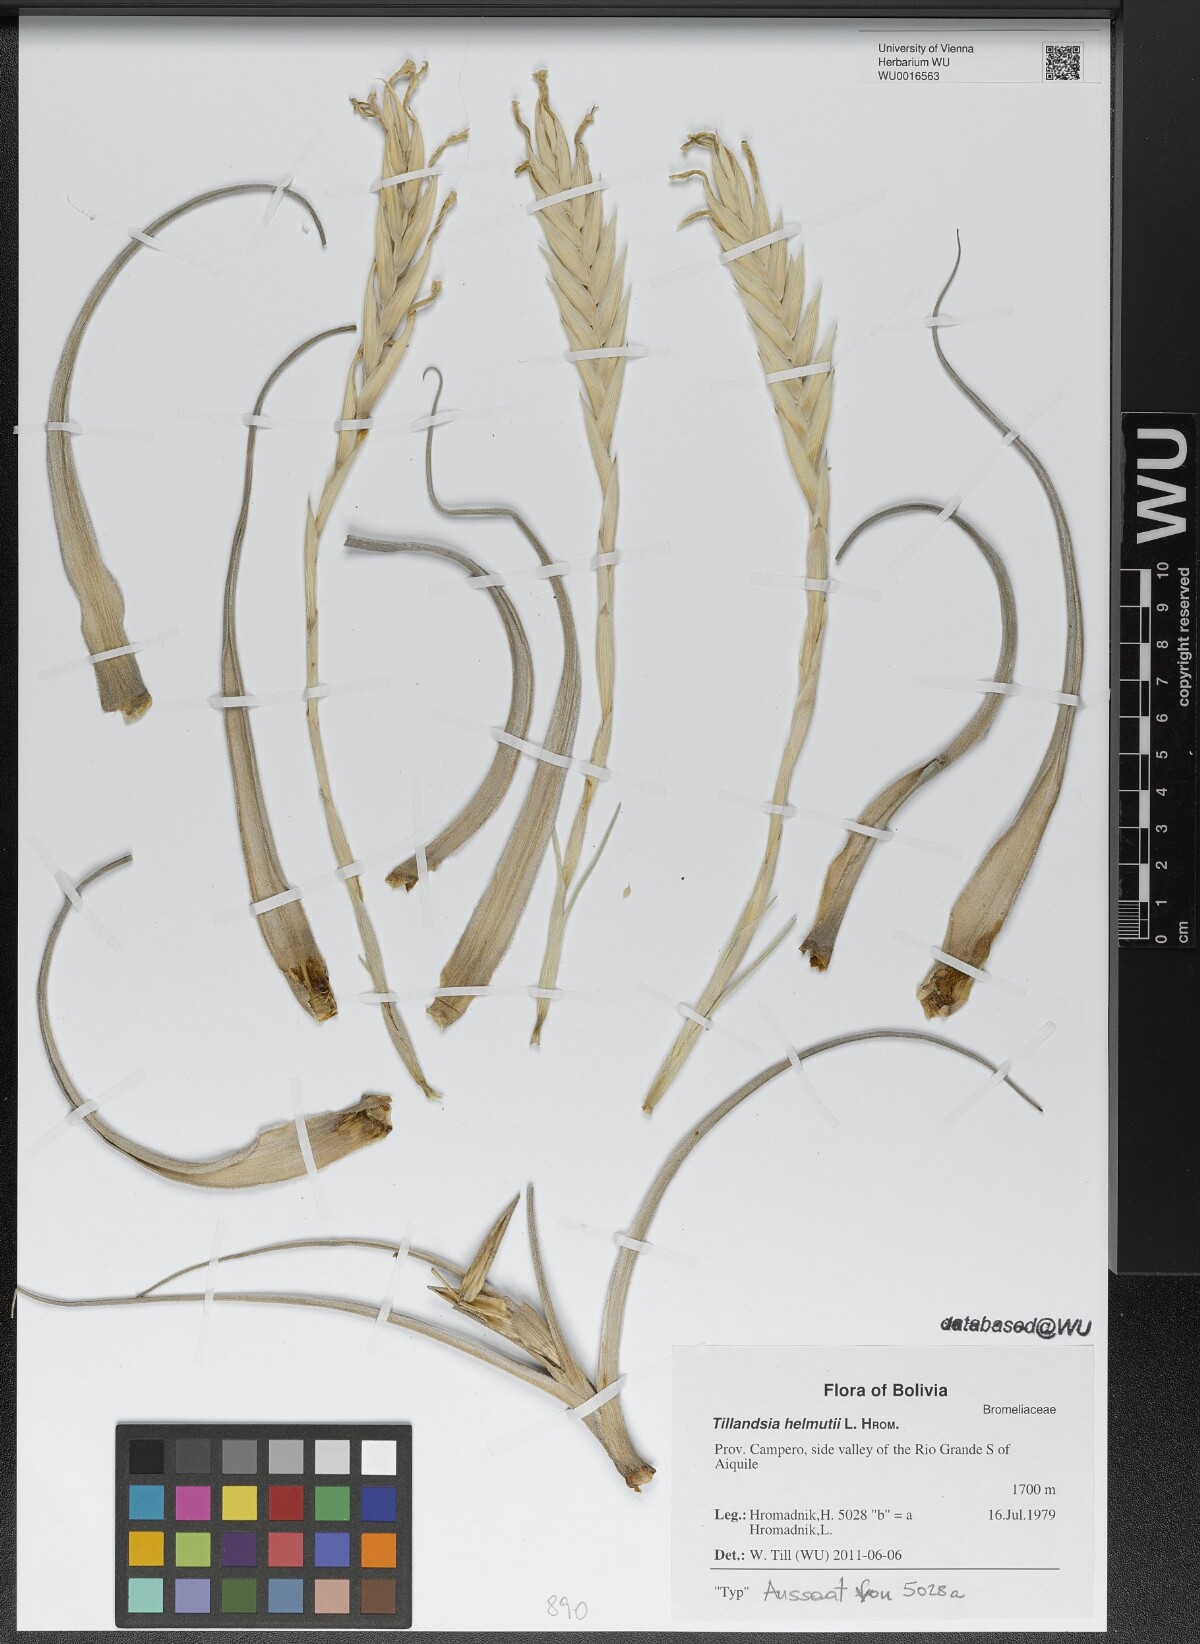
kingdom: Plantae
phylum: Tracheophyta
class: Liliopsida
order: Poales
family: Bromeliaceae
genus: Tillandsia
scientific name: Tillandsia helmutii
